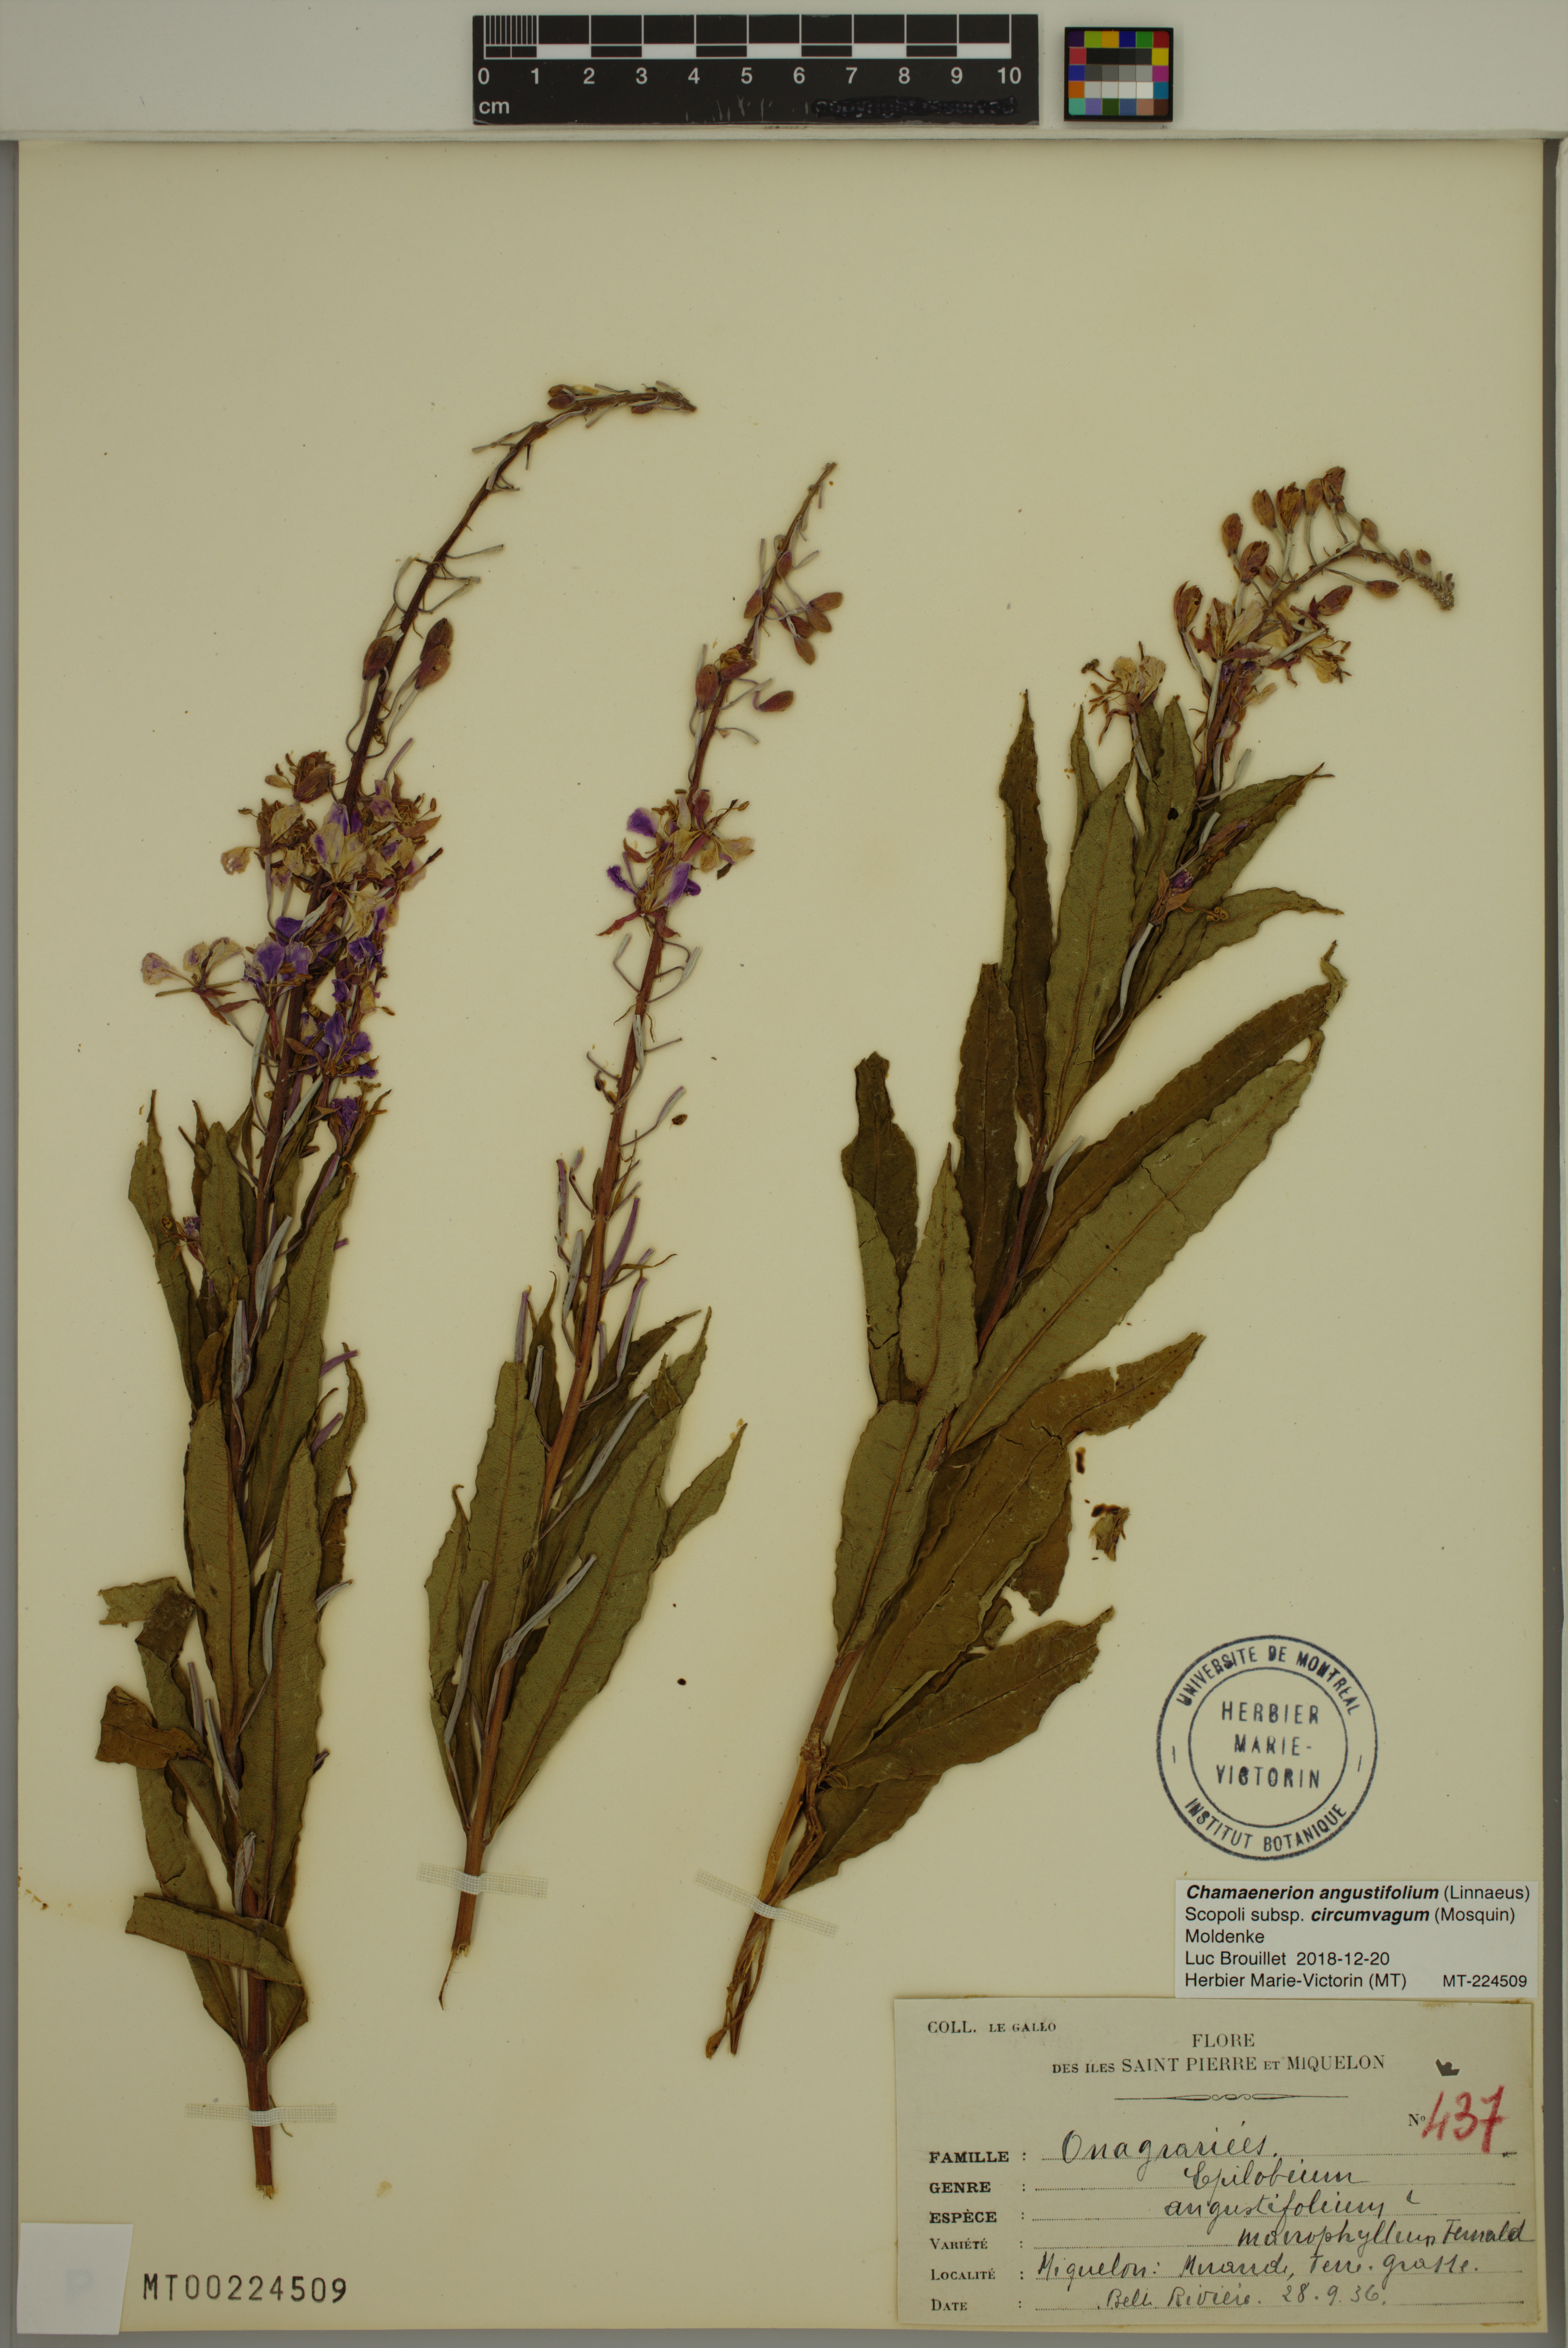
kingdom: Plantae
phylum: Tracheophyta
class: Magnoliopsida
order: Myrtales
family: Onagraceae
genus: Chamaenerion
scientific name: Chamaenerion angustifolium
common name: Fireweed
